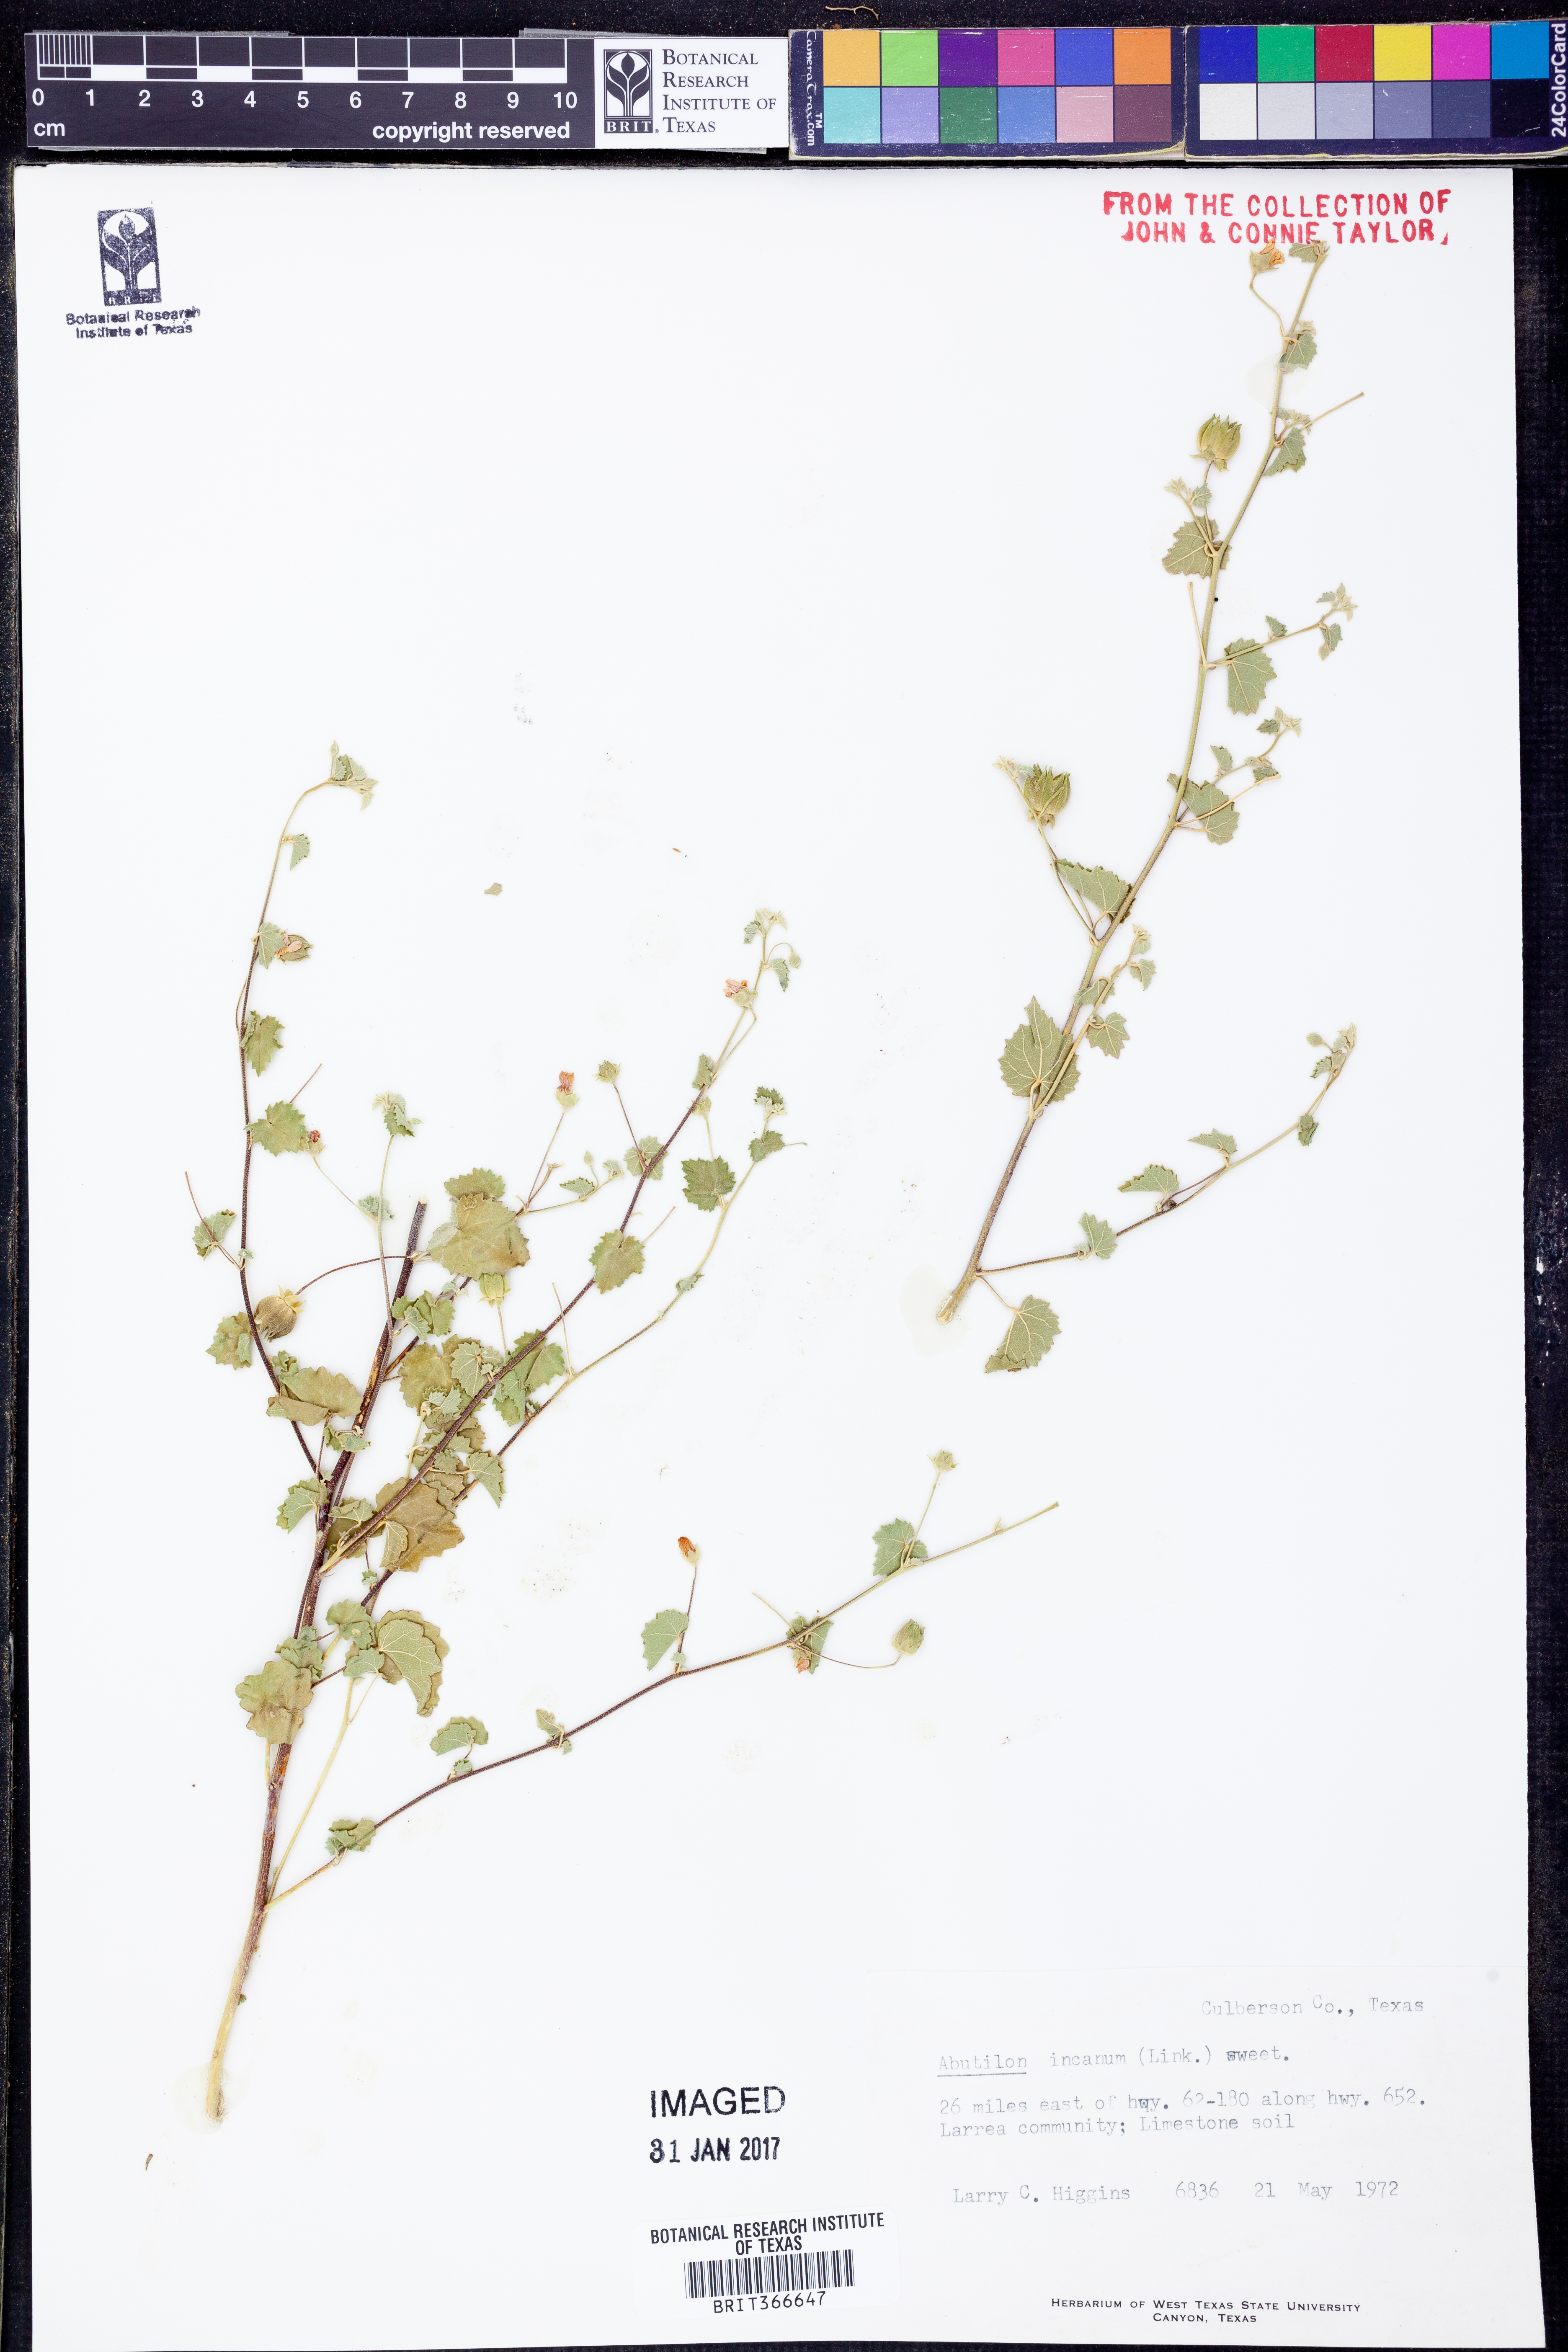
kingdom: Plantae
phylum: Tracheophyta
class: Magnoliopsida
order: Malvales
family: Malvaceae
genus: Abutilon
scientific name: Abutilon incanum
